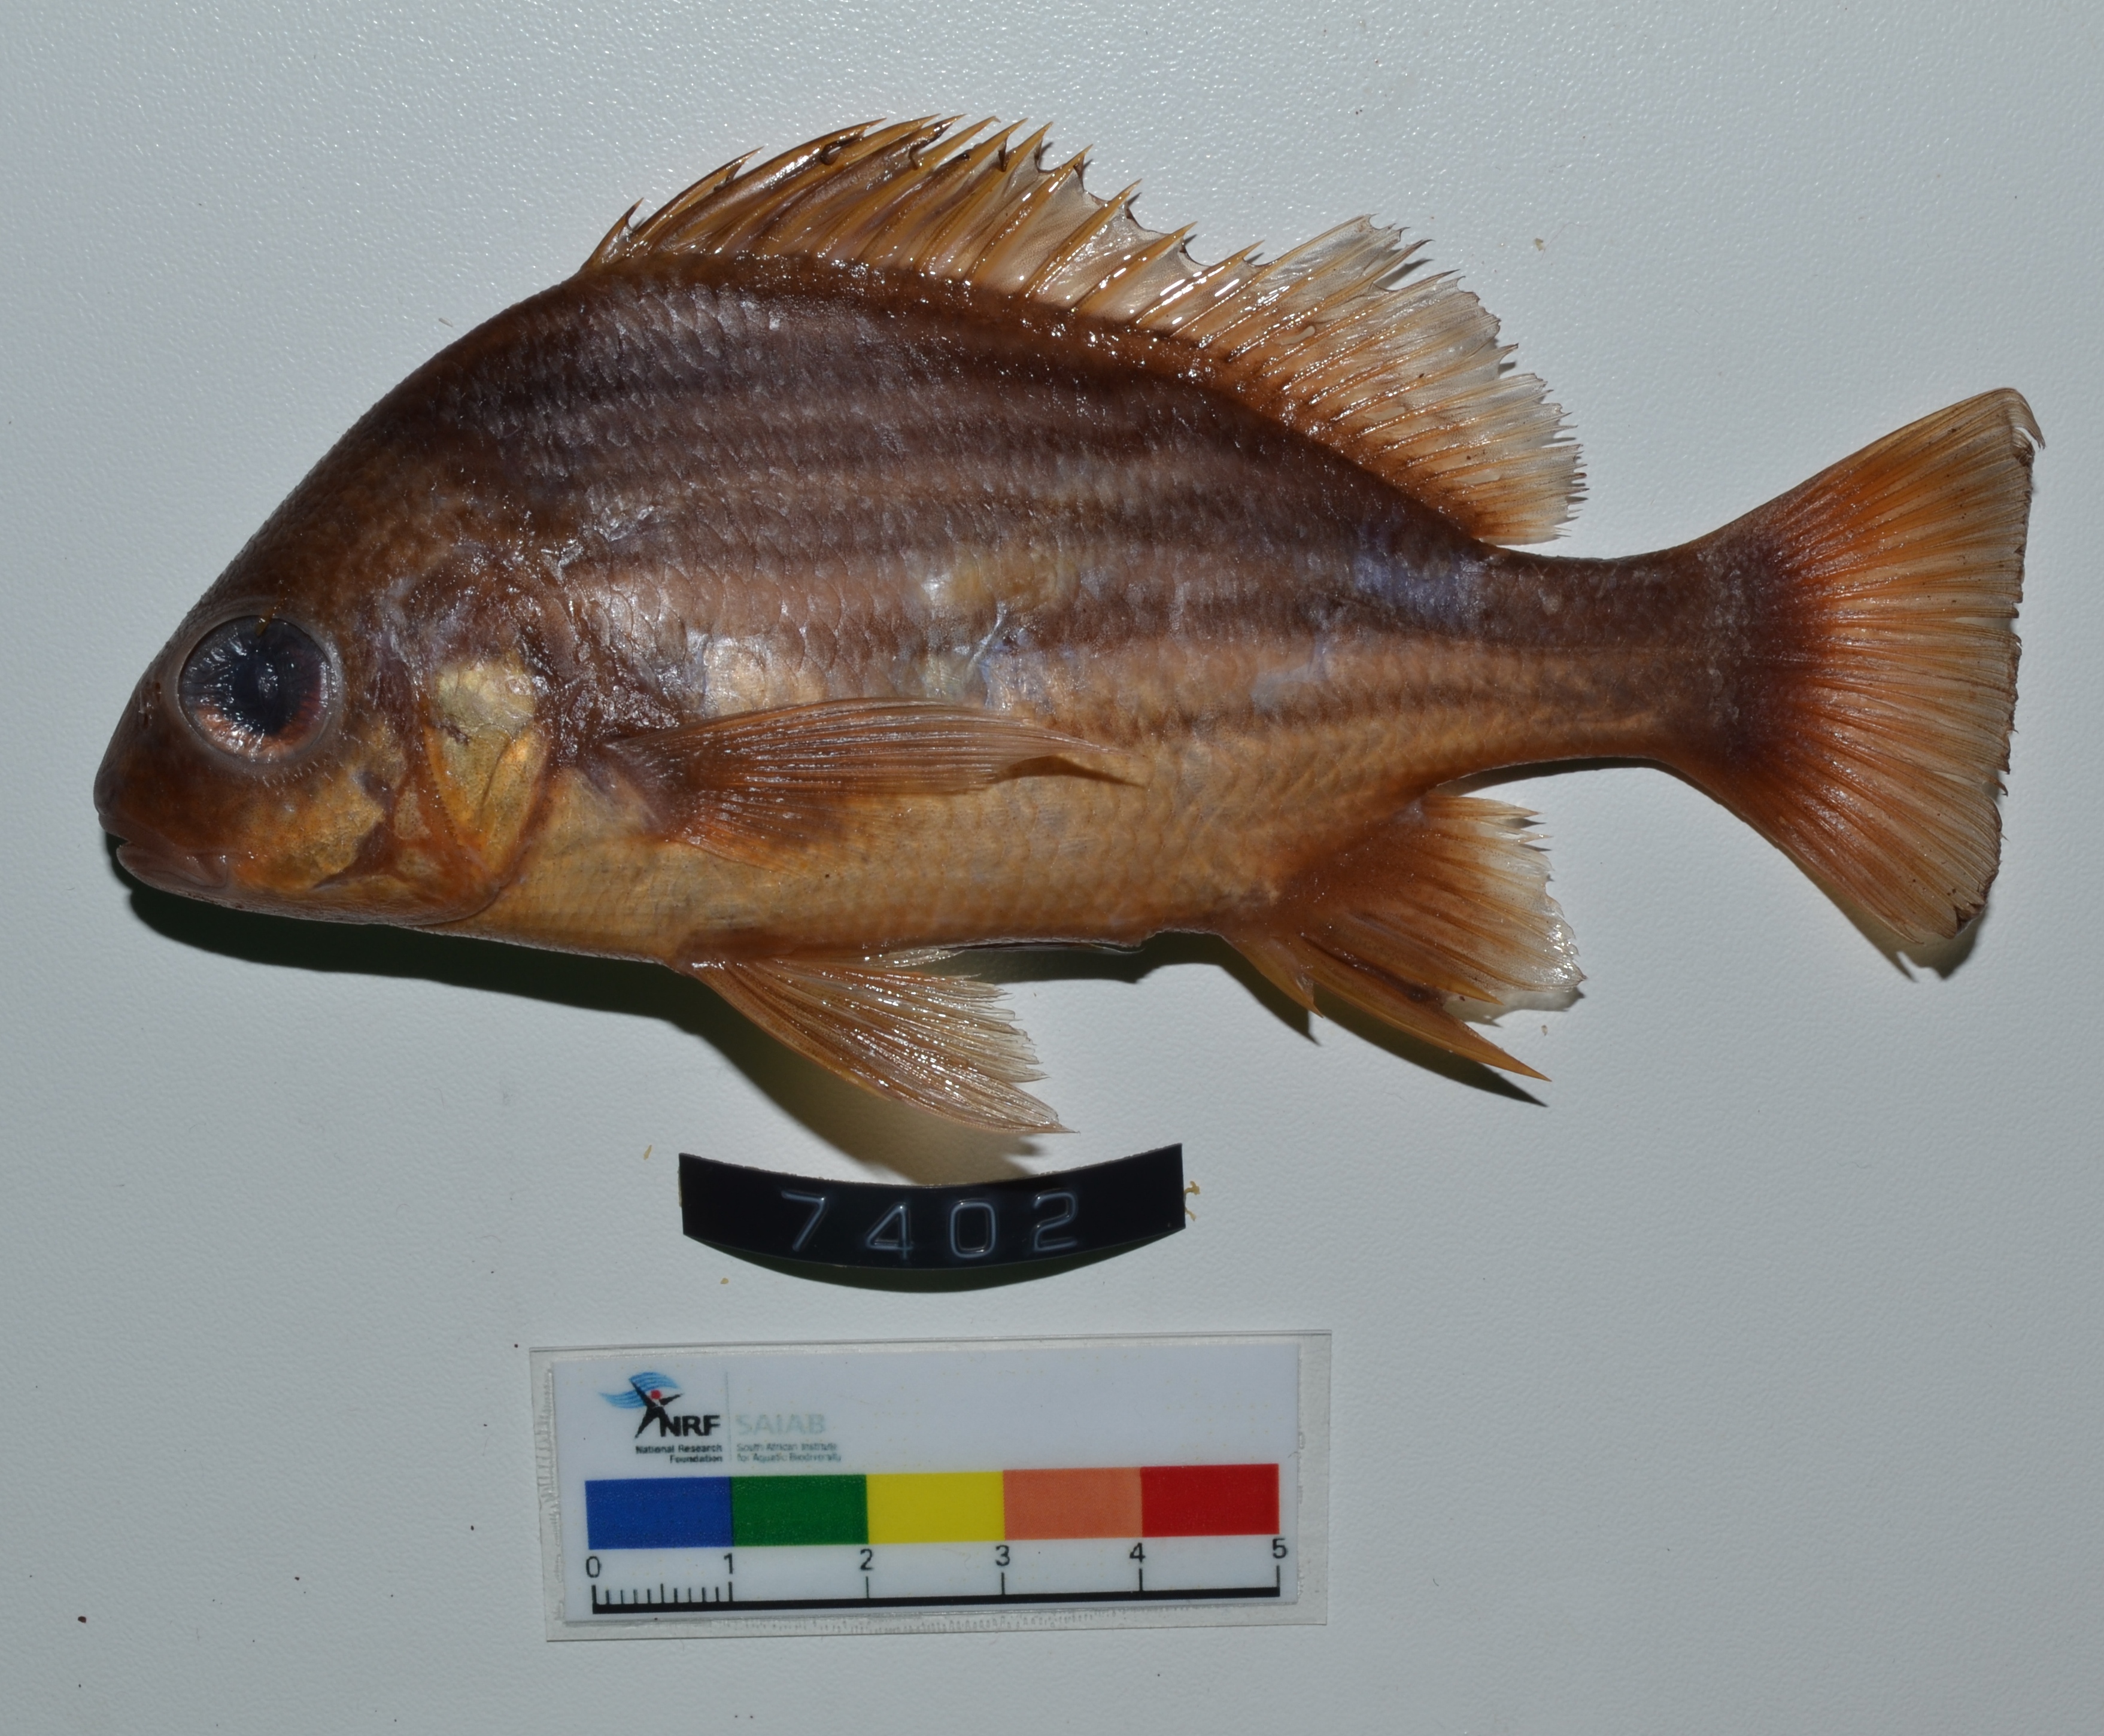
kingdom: Animalia
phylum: Chordata
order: Perciformes
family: Haemulidae
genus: Pomadasys
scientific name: Pomadasys furcatus
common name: Banded grunter
